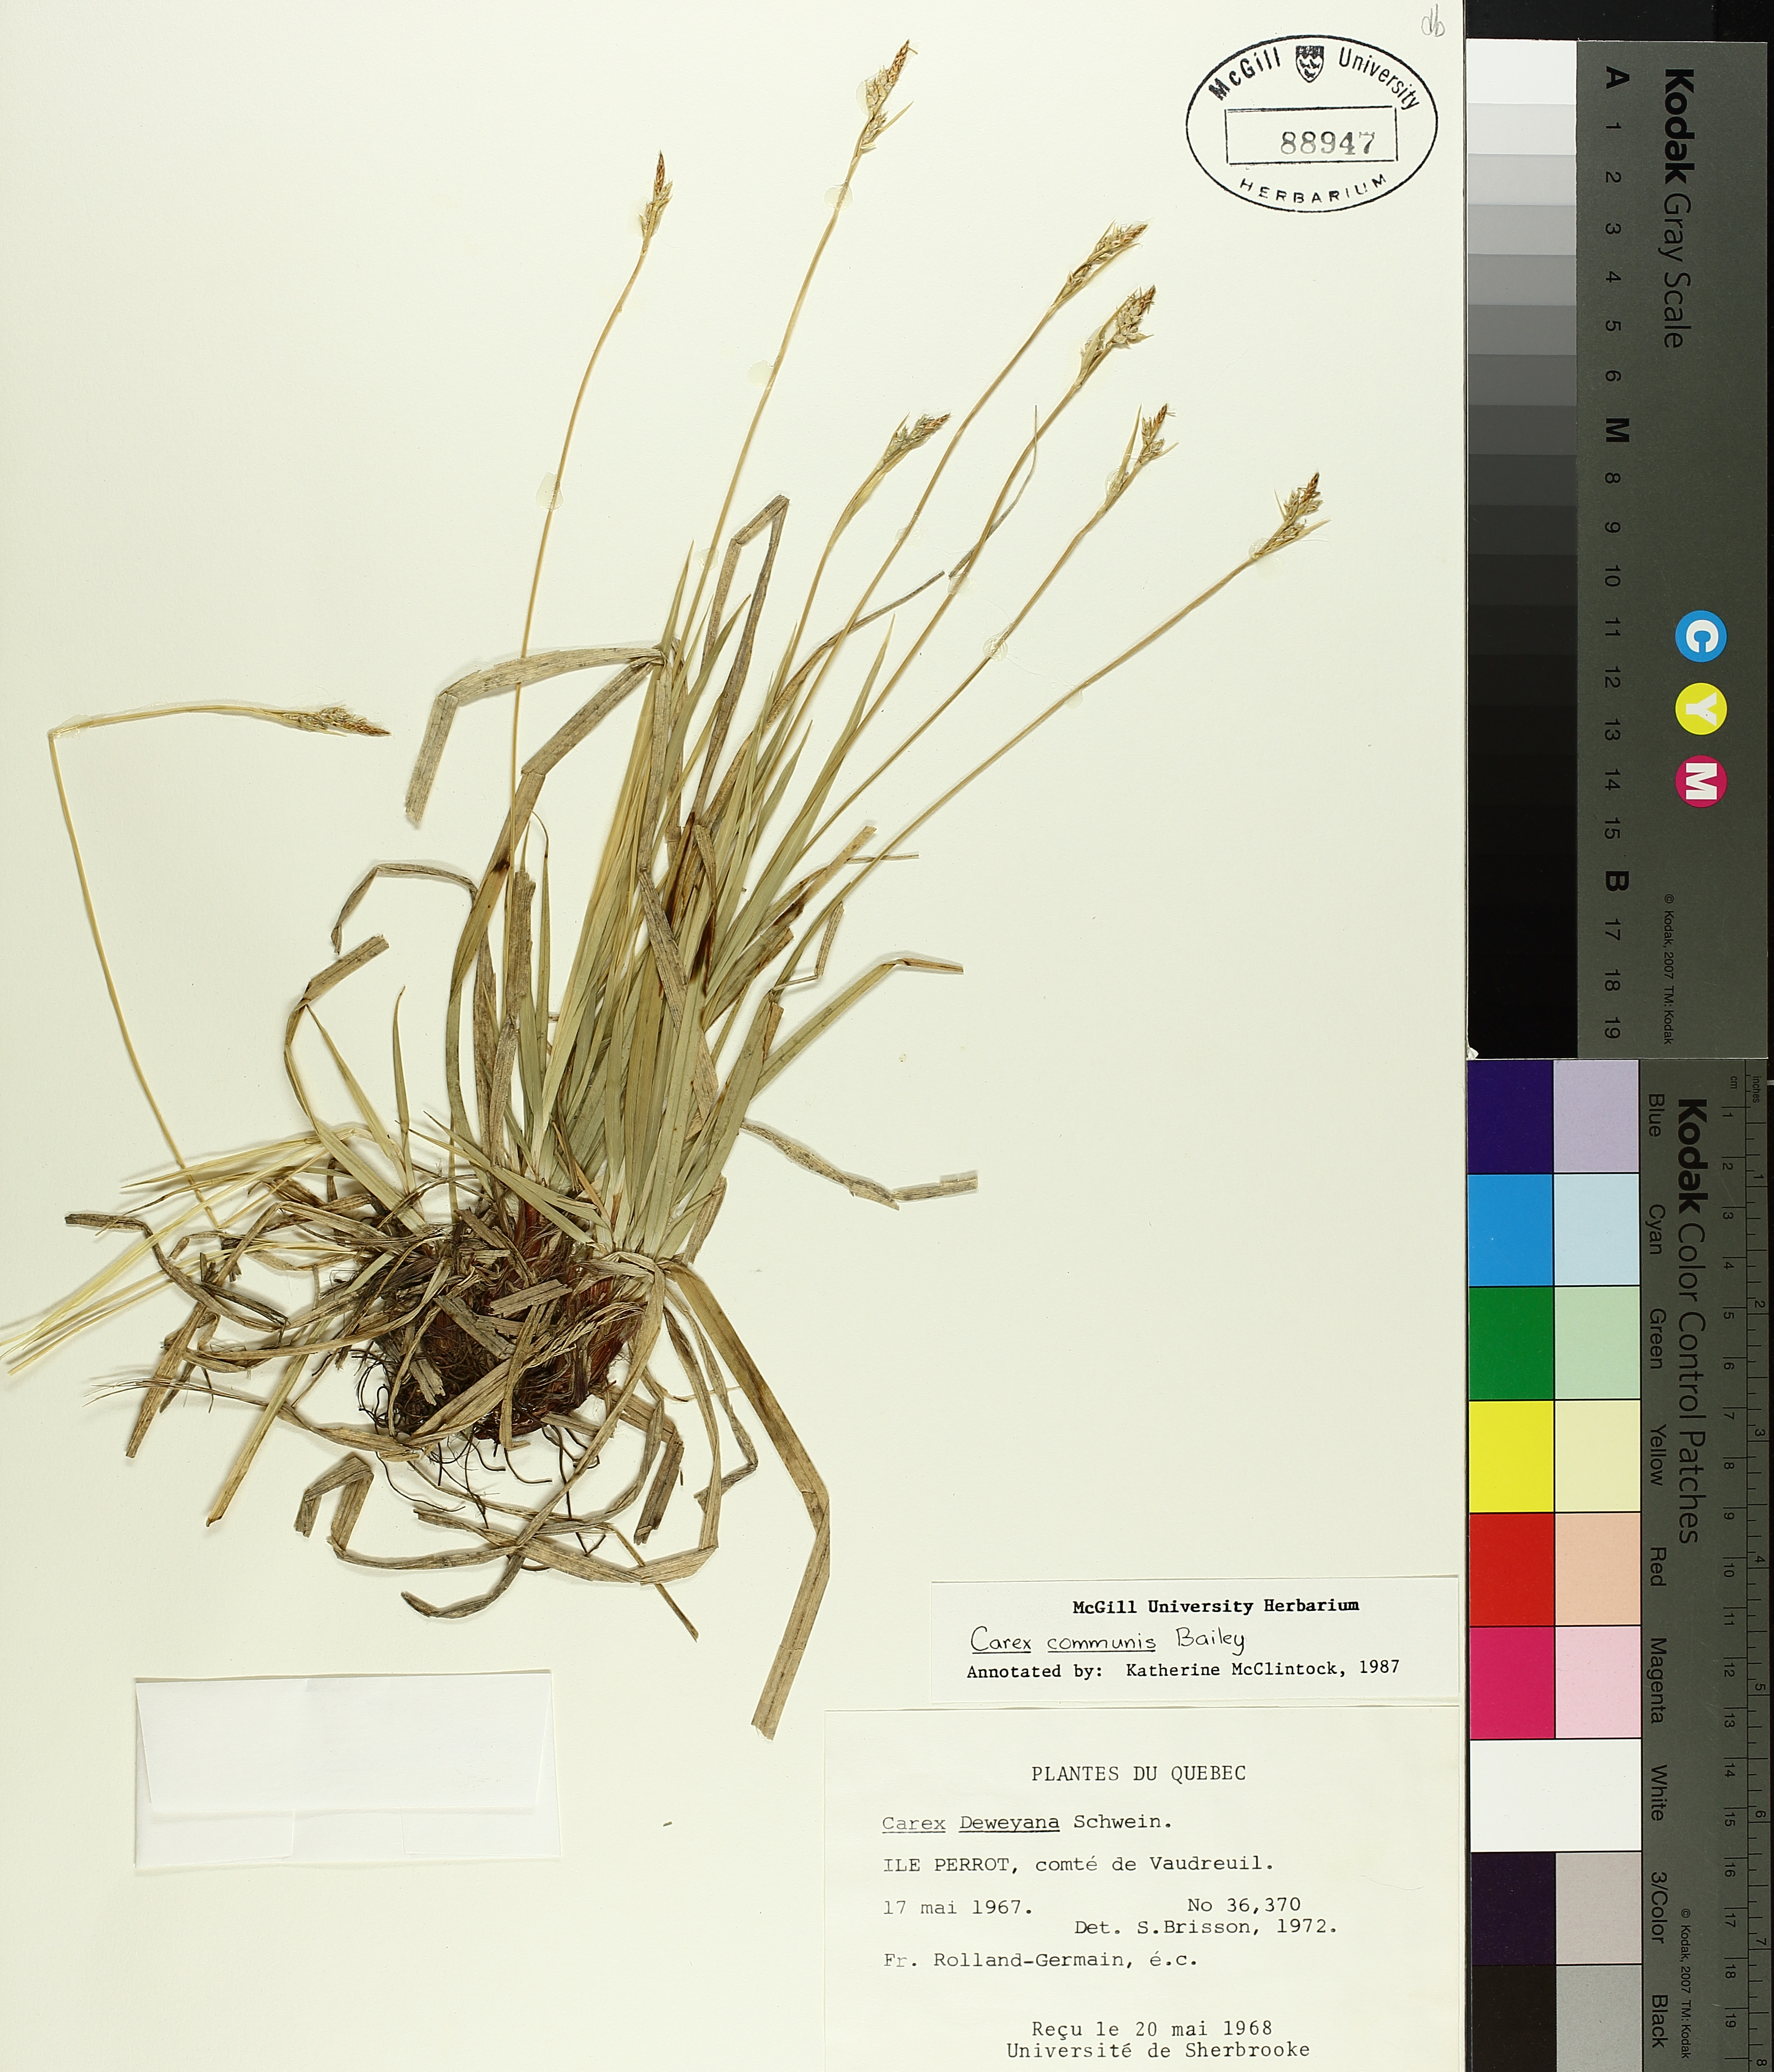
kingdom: Plantae
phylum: Tracheophyta
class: Liliopsida
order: Poales
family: Cyperaceae
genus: Carex
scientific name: Carex communis
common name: Colonial oak sedge
